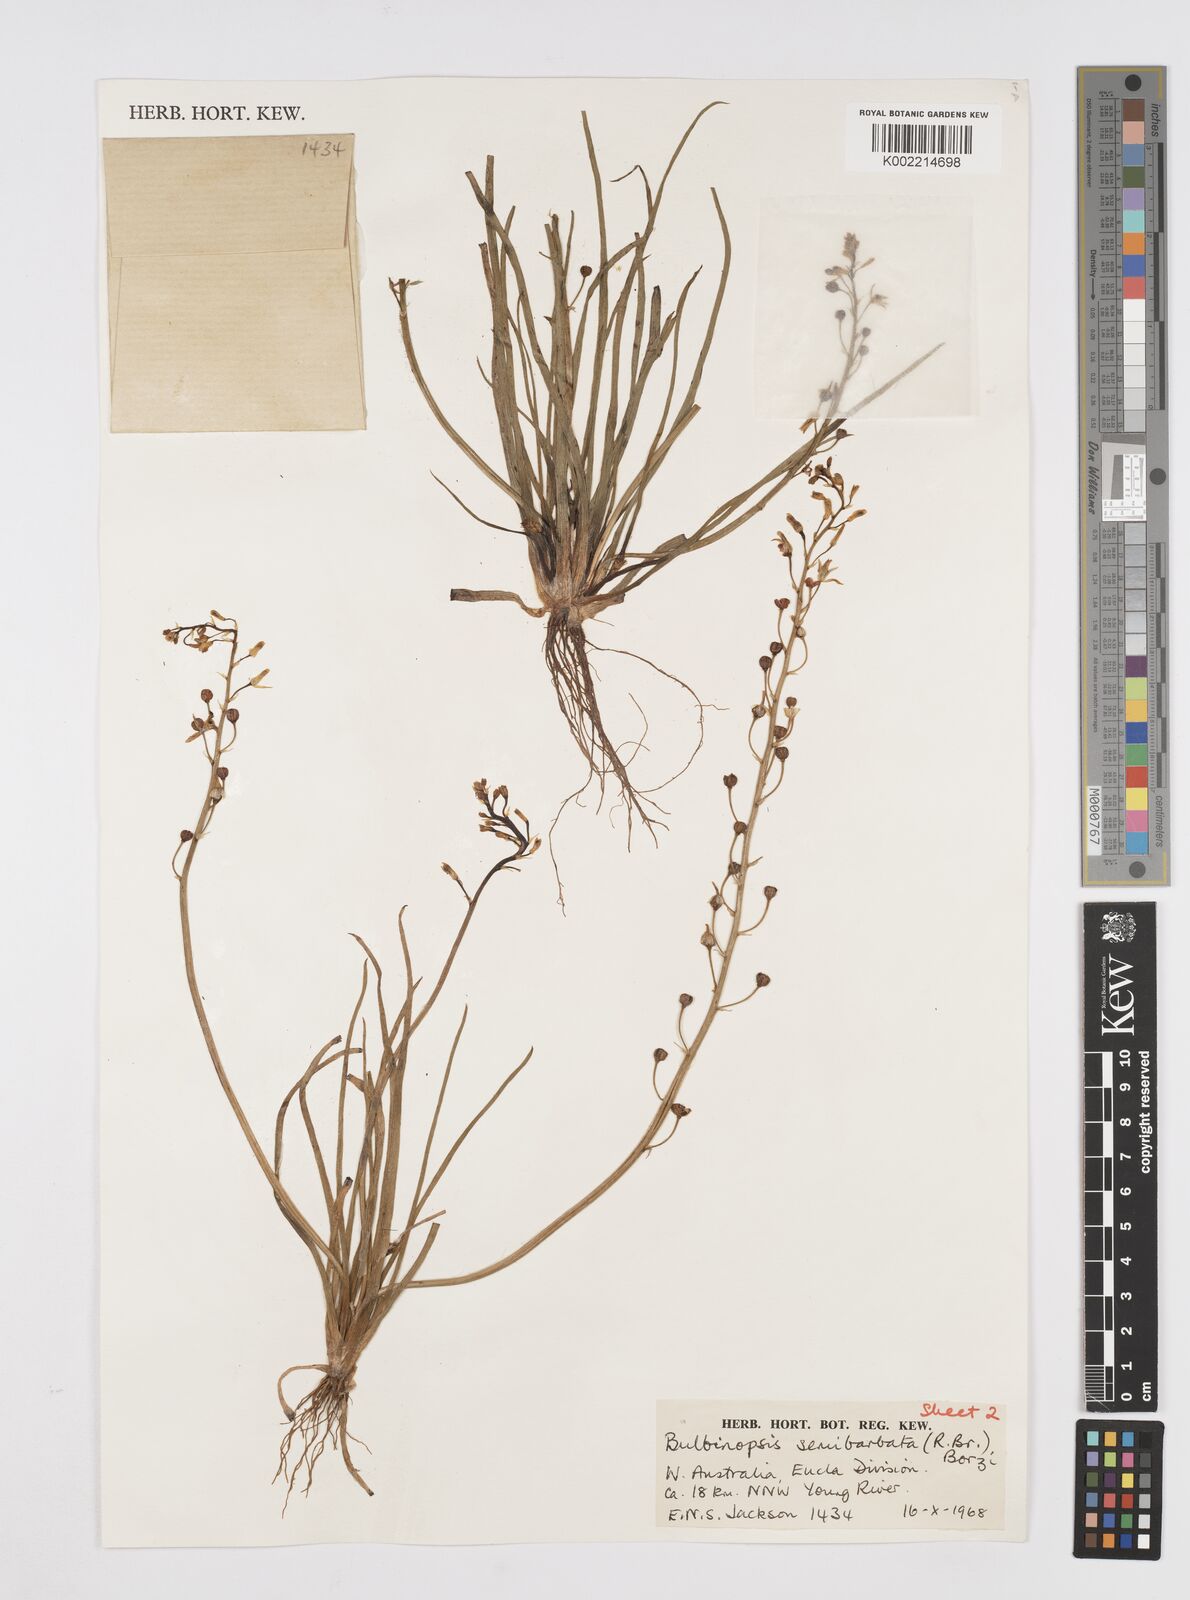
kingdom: Plantae
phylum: Tracheophyta
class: Liliopsida
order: Asparagales
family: Asphodelaceae
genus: Bulbine
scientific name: Bulbine semibarbata
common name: Leek lily
